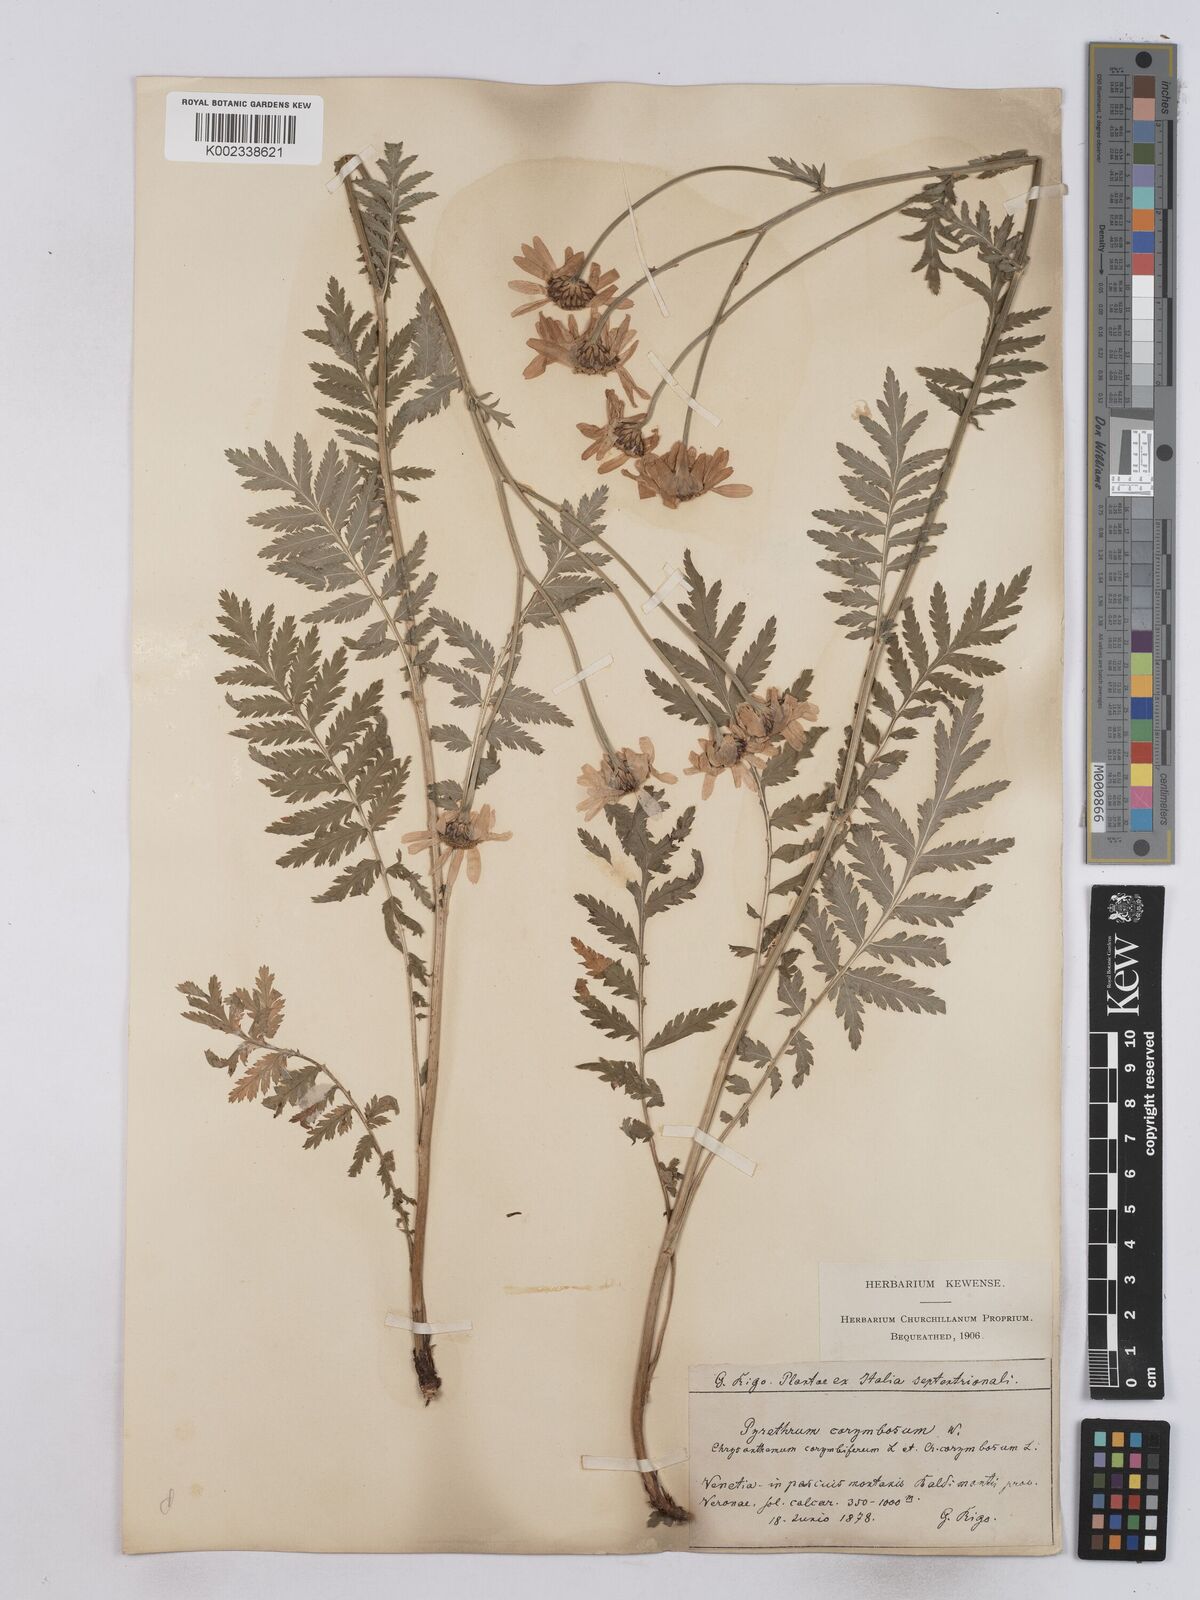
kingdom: Plantae
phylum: Tracheophyta
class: Magnoliopsida
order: Asterales
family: Asteraceae
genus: Tanacetum
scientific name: Tanacetum corymbosum
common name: Scentless feverfew
